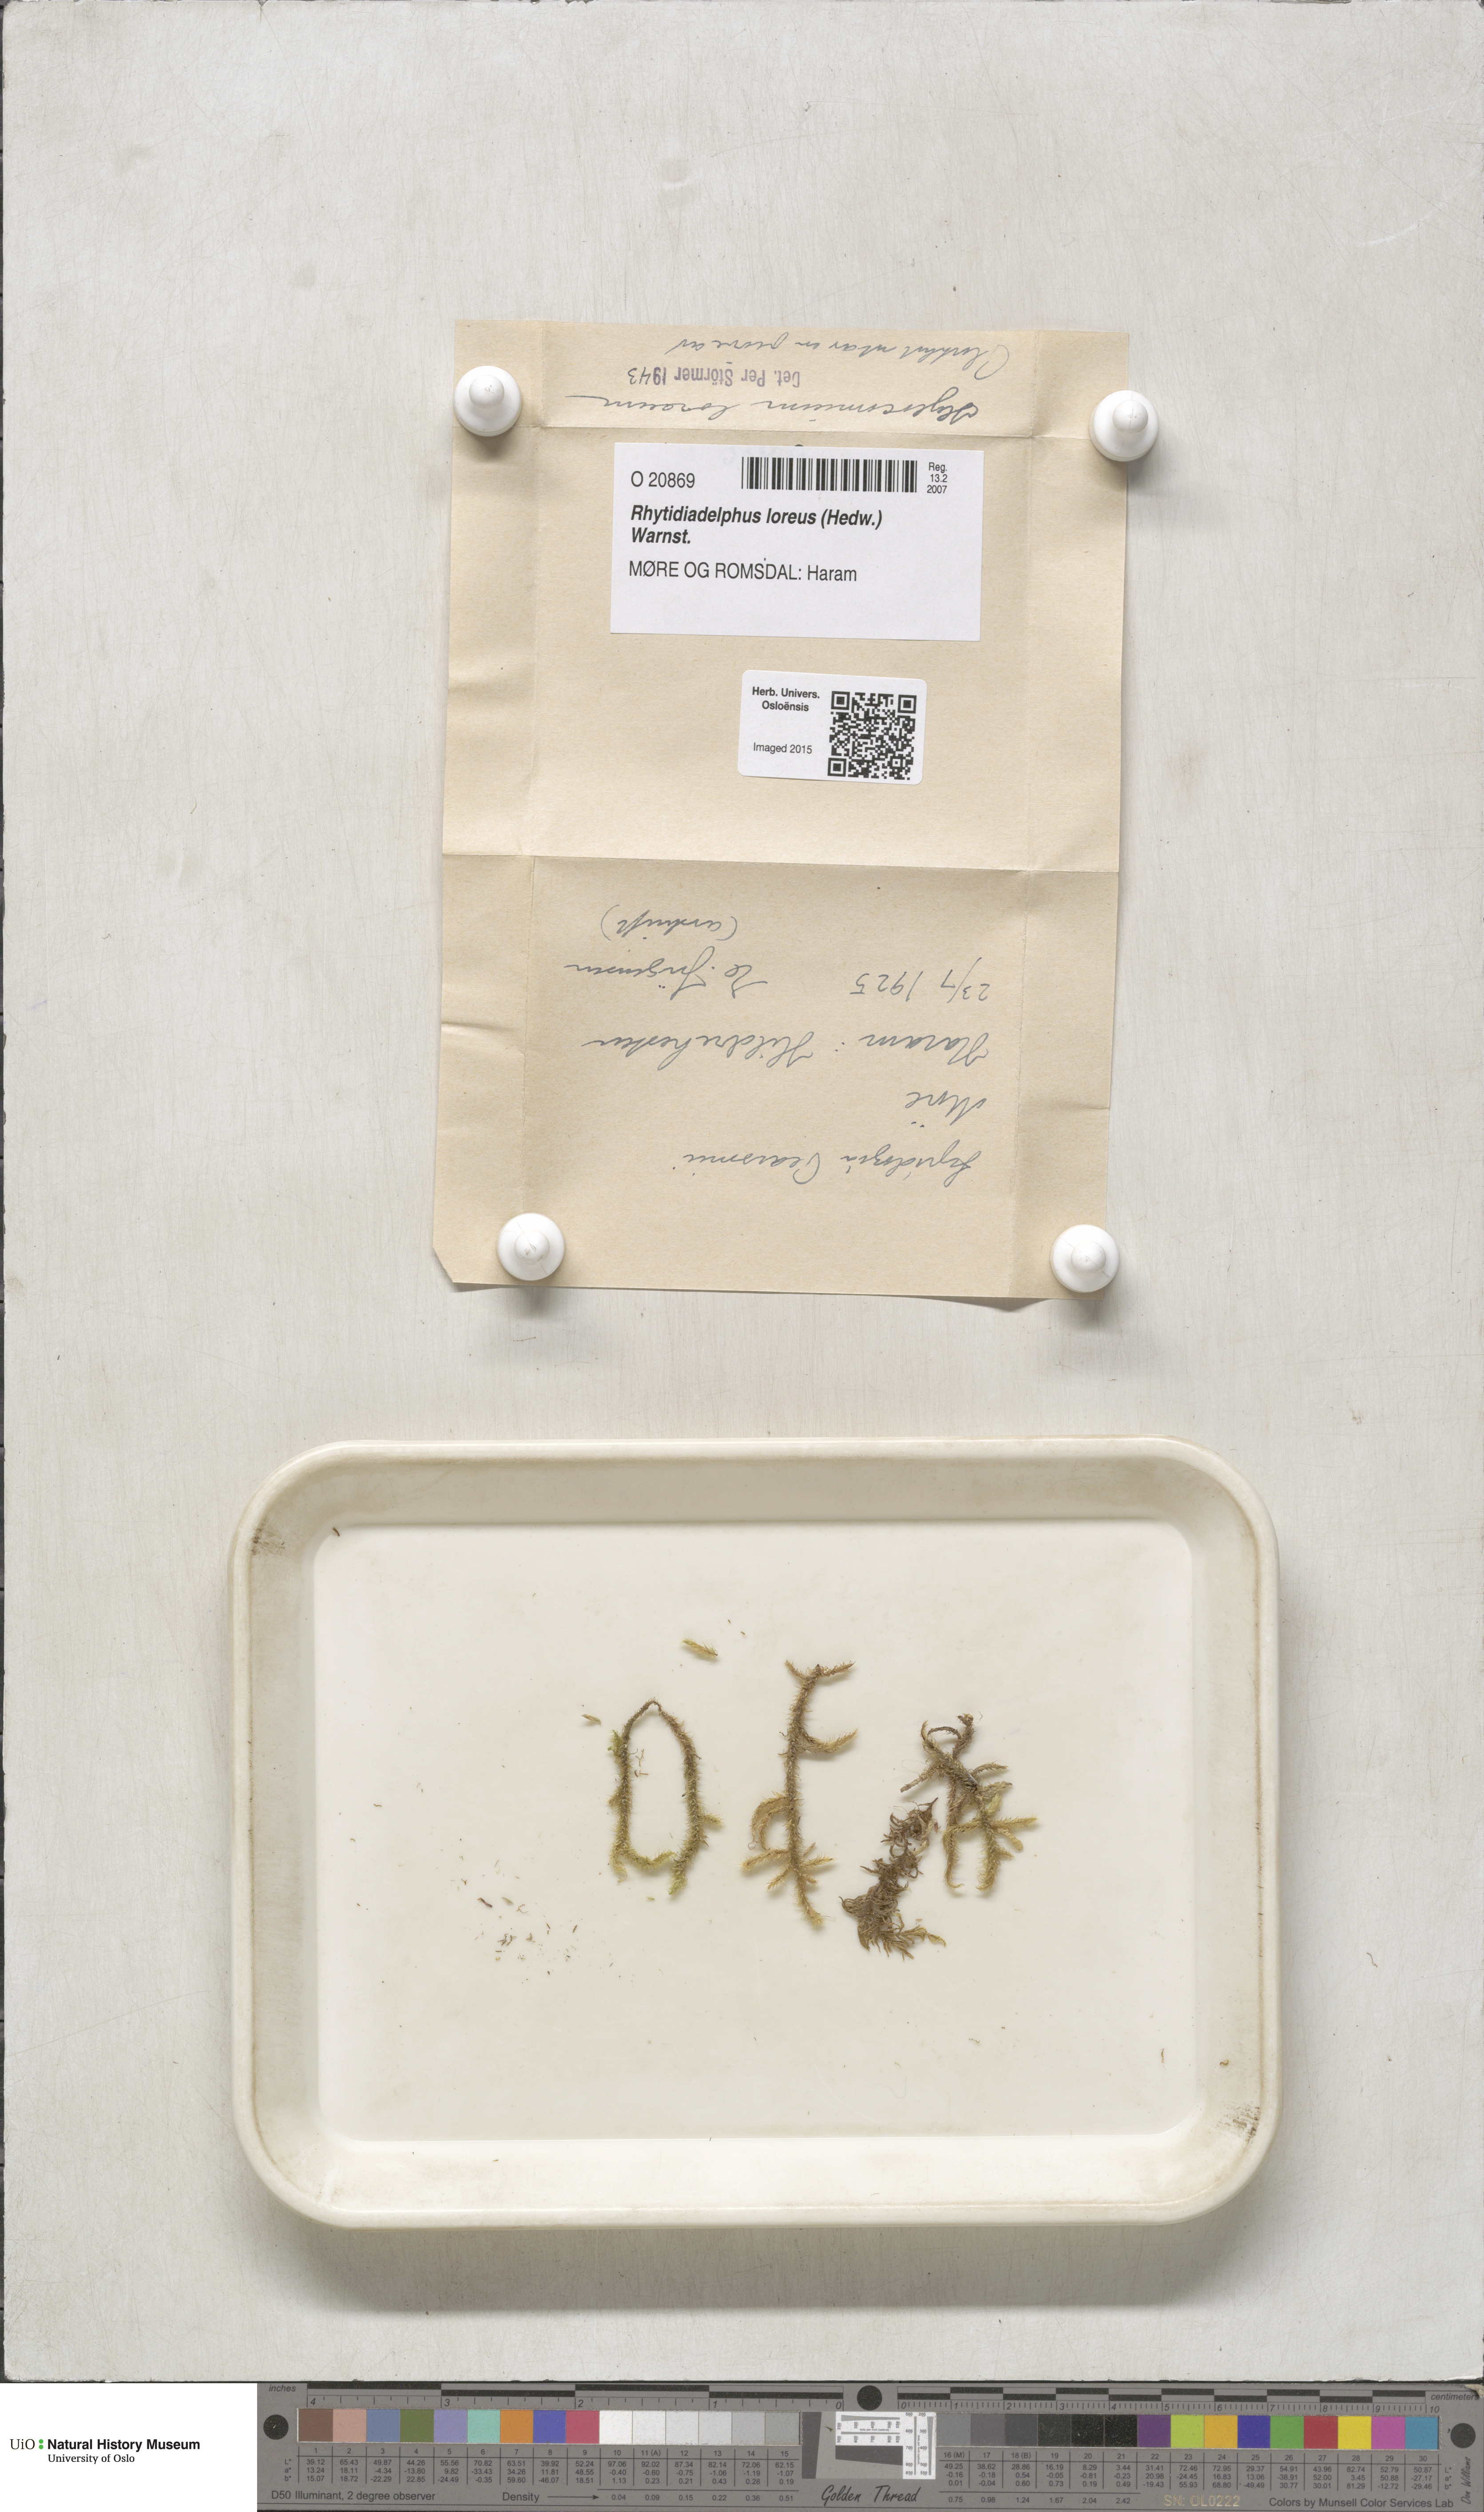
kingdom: Plantae
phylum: Bryophyta
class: Bryopsida
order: Hypnales
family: Hylocomiaceae
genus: Rhytidiadelphus
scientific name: Rhytidiadelphus loreus
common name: Lanky moss
